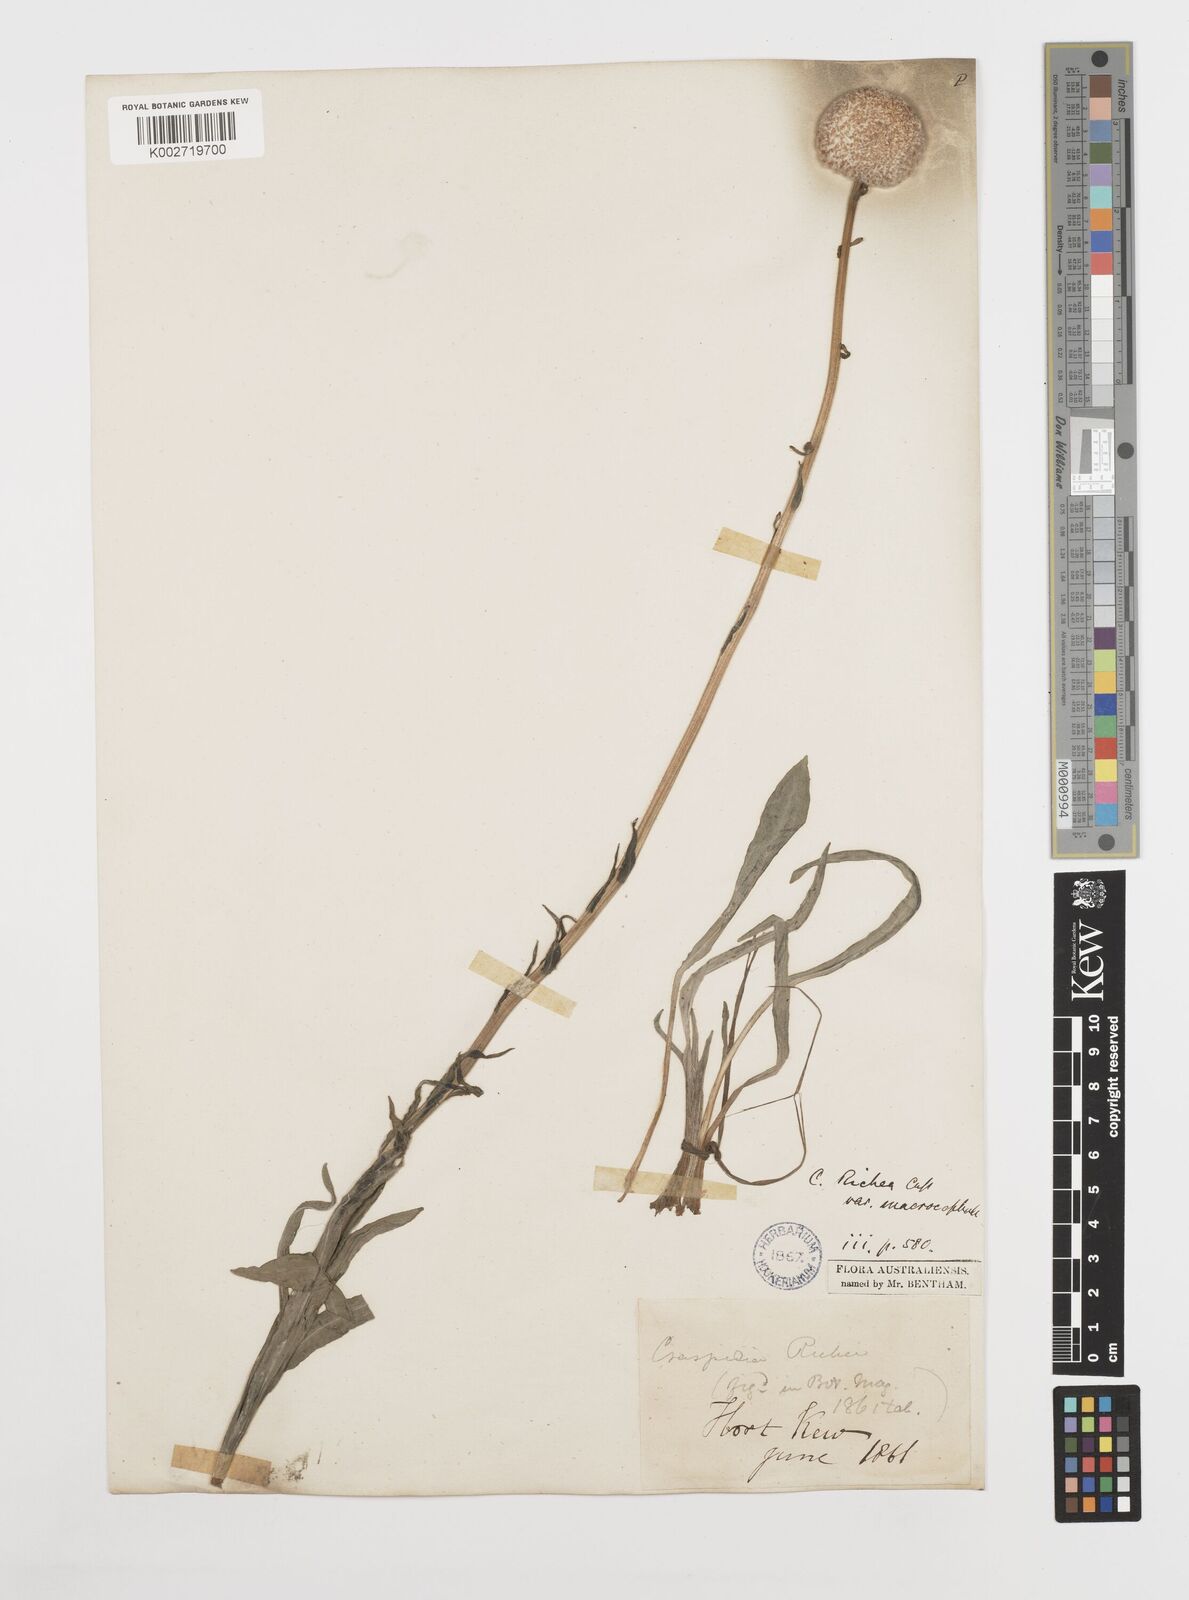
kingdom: Plantae
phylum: Tracheophyta
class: Magnoliopsida
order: Asterales
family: Asteraceae
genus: Craspedia
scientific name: Craspedia glauca
